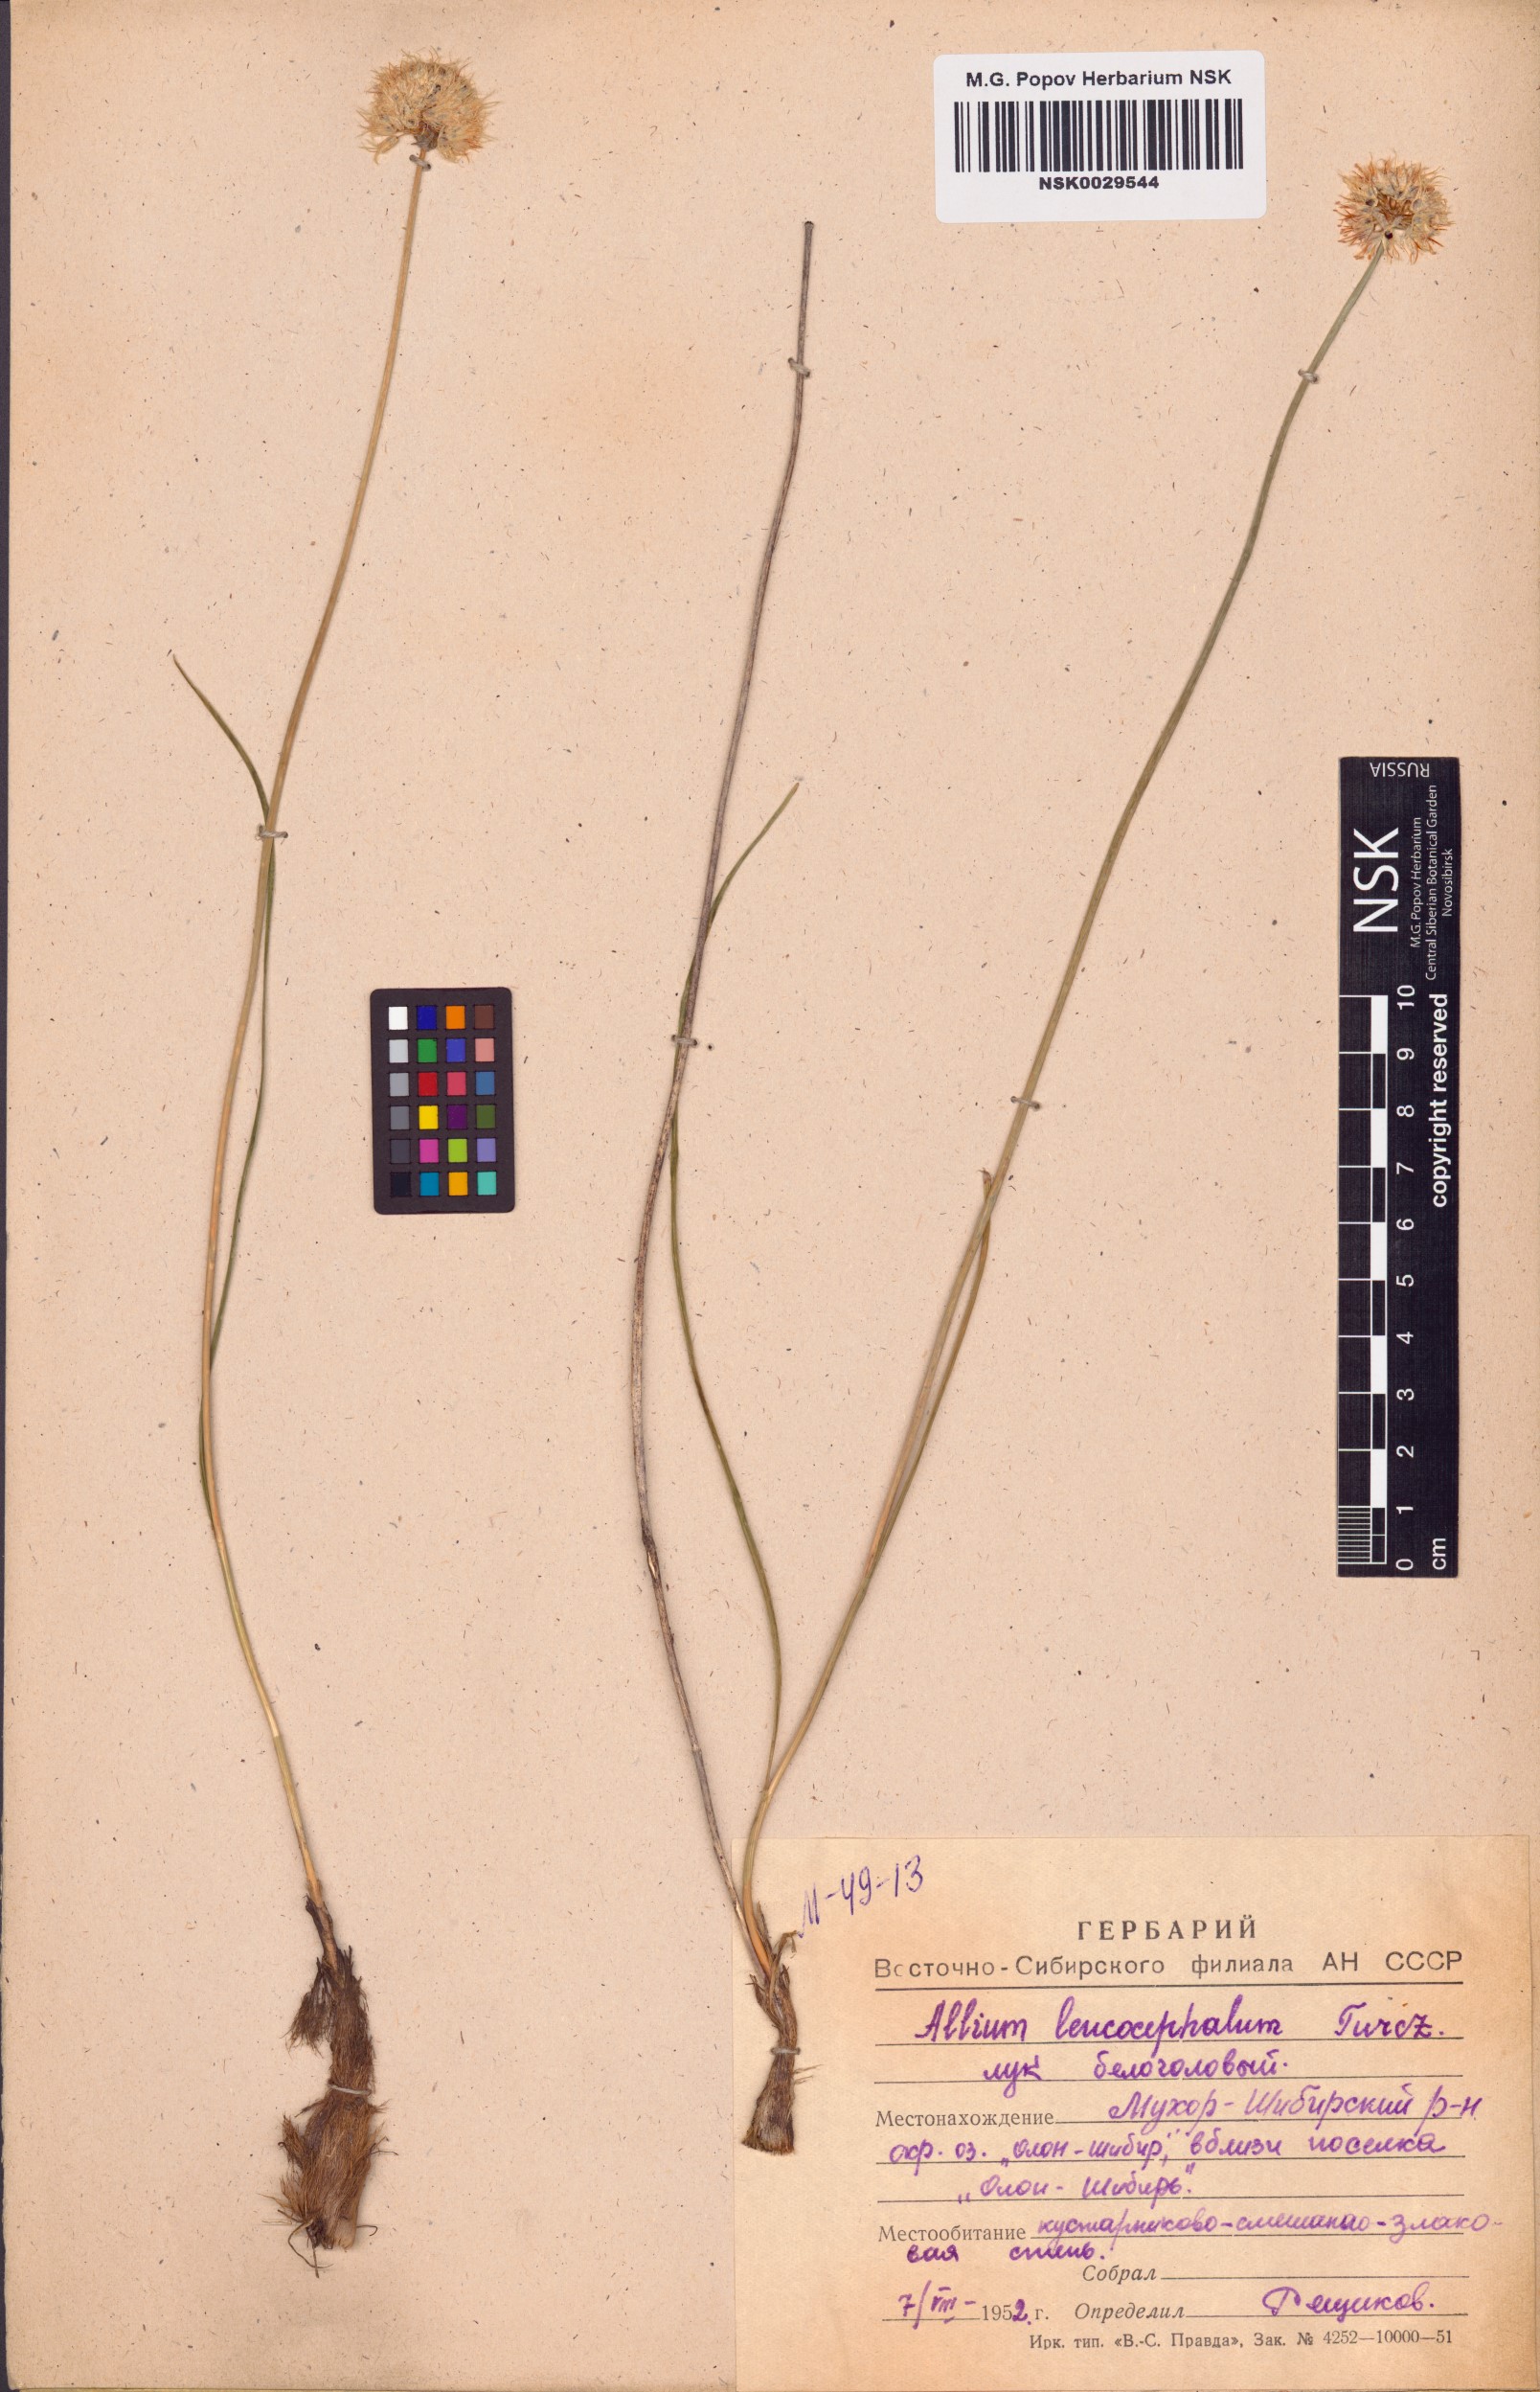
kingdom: Plantae
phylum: Tracheophyta
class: Liliopsida
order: Asparagales
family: Amaryllidaceae
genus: Allium
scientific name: Allium leucocephalum
